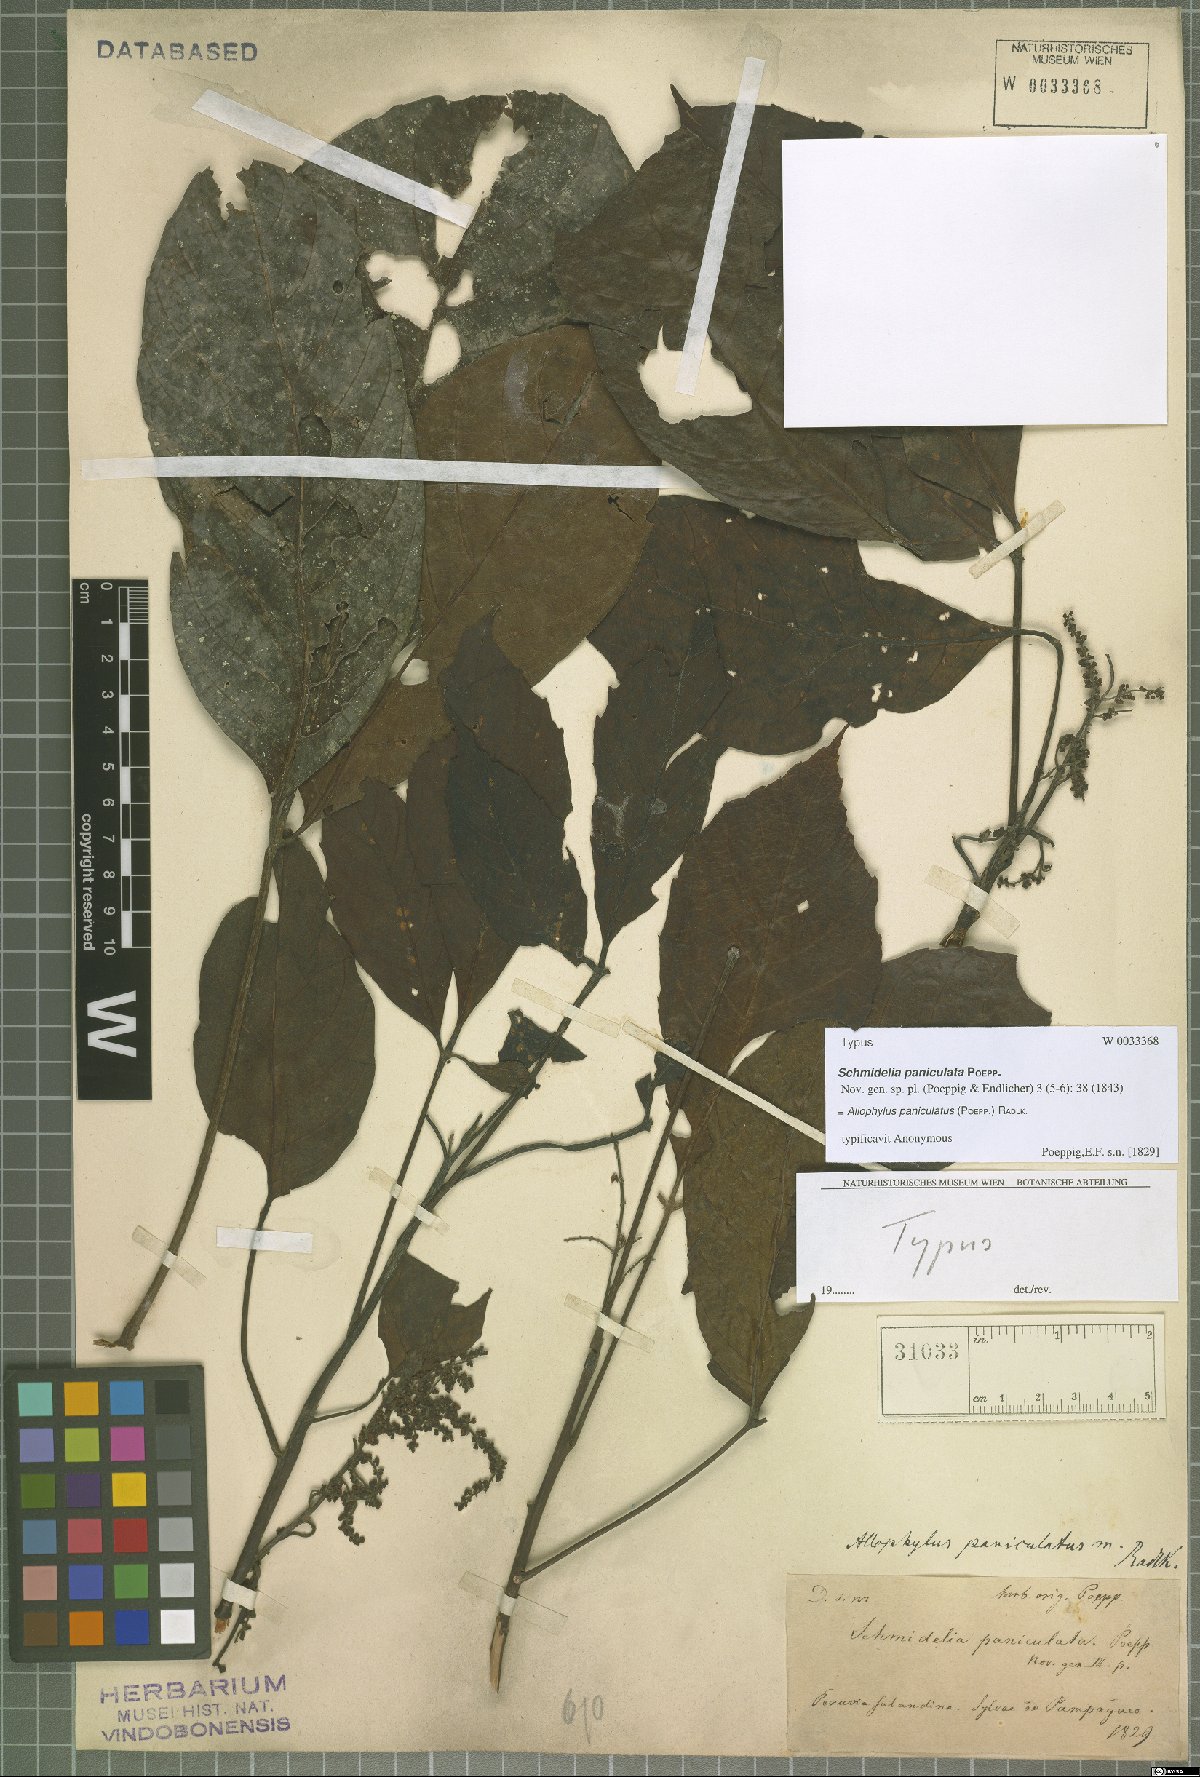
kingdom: Plantae
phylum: Tracheophyta
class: Magnoliopsida
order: Sapindales
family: Sapindaceae
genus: Allophylus
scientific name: Allophylus paniculatus
